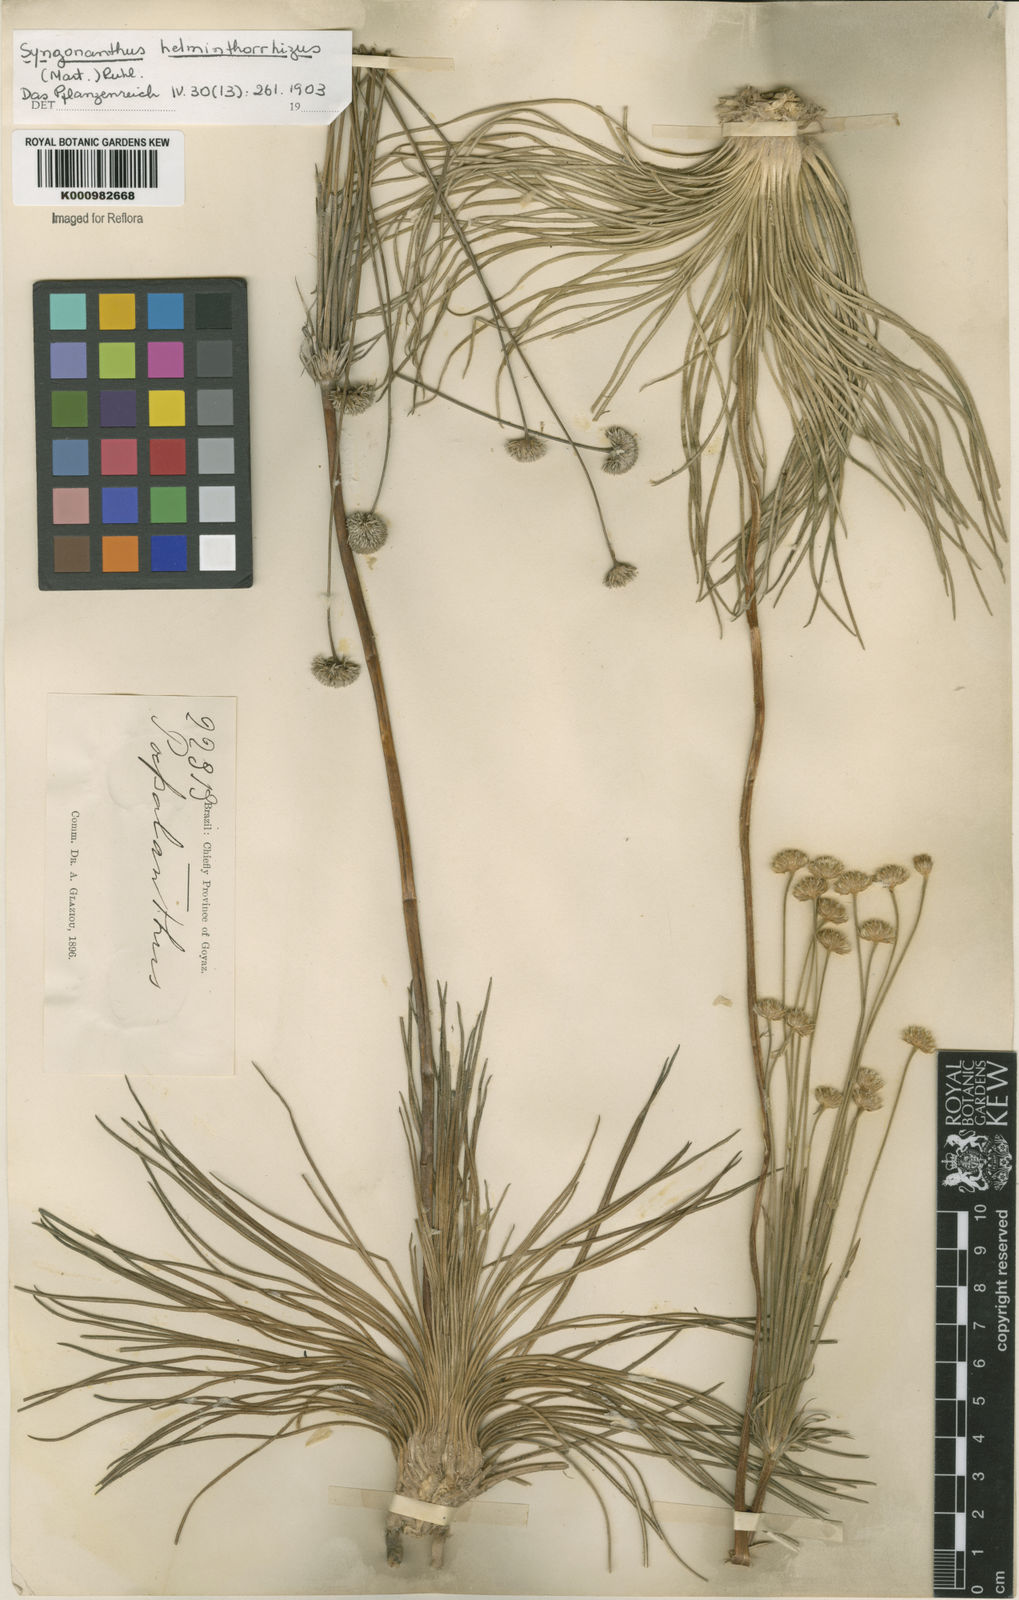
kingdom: Plantae
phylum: Tracheophyta
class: Liliopsida
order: Poales
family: Eriocaulaceae
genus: Syngonanthus
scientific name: Syngonanthus
